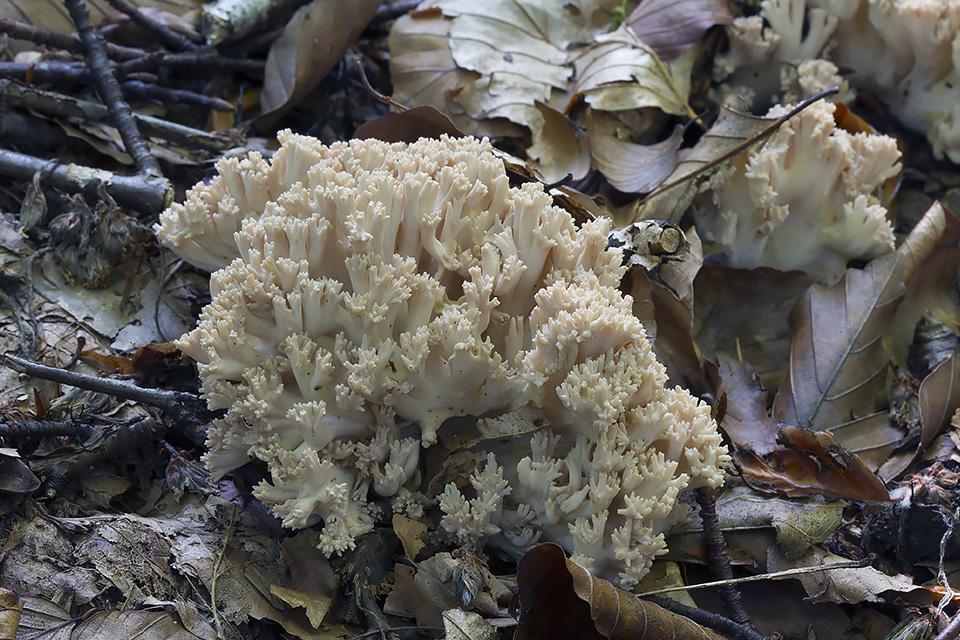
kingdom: Fungi
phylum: Basidiomycota
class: Agaricomycetes
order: Gomphales
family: Gomphaceae
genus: Ramaria
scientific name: Ramaria
